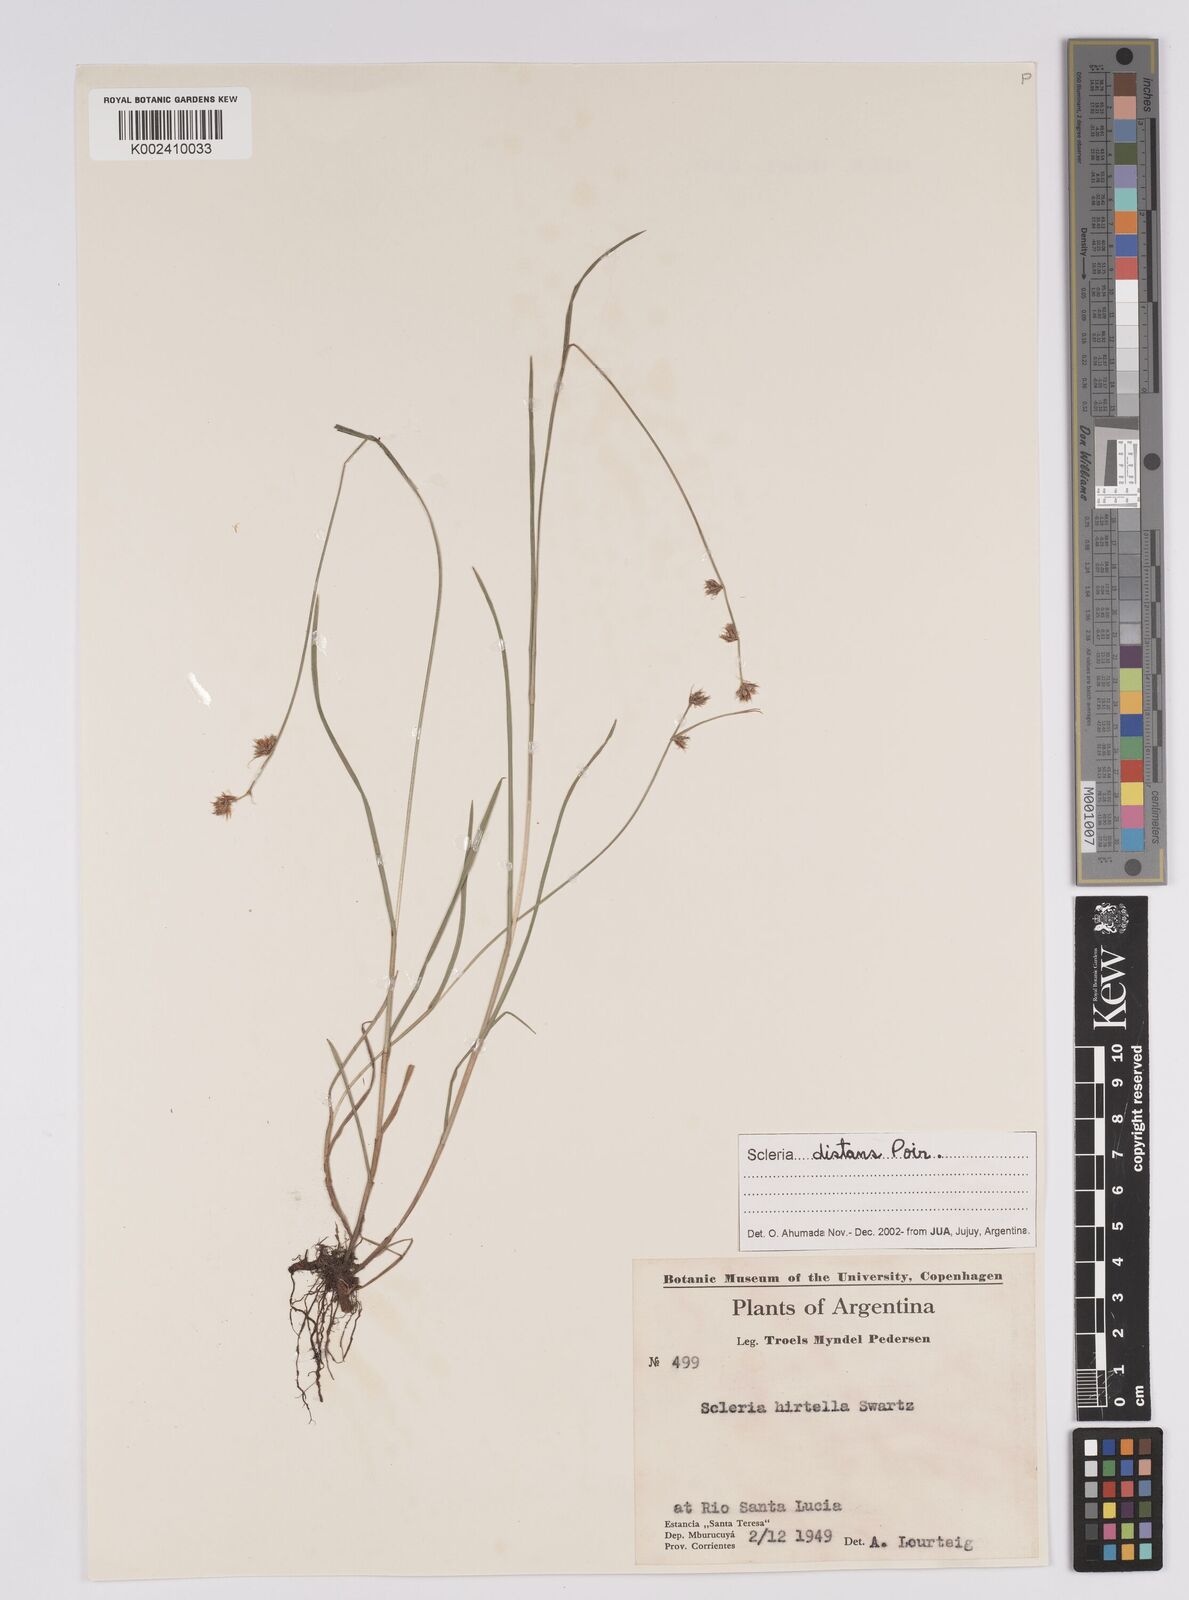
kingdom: Plantae
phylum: Tracheophyta
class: Liliopsida
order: Poales
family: Cyperaceae
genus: Scleria
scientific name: Scleria distans
